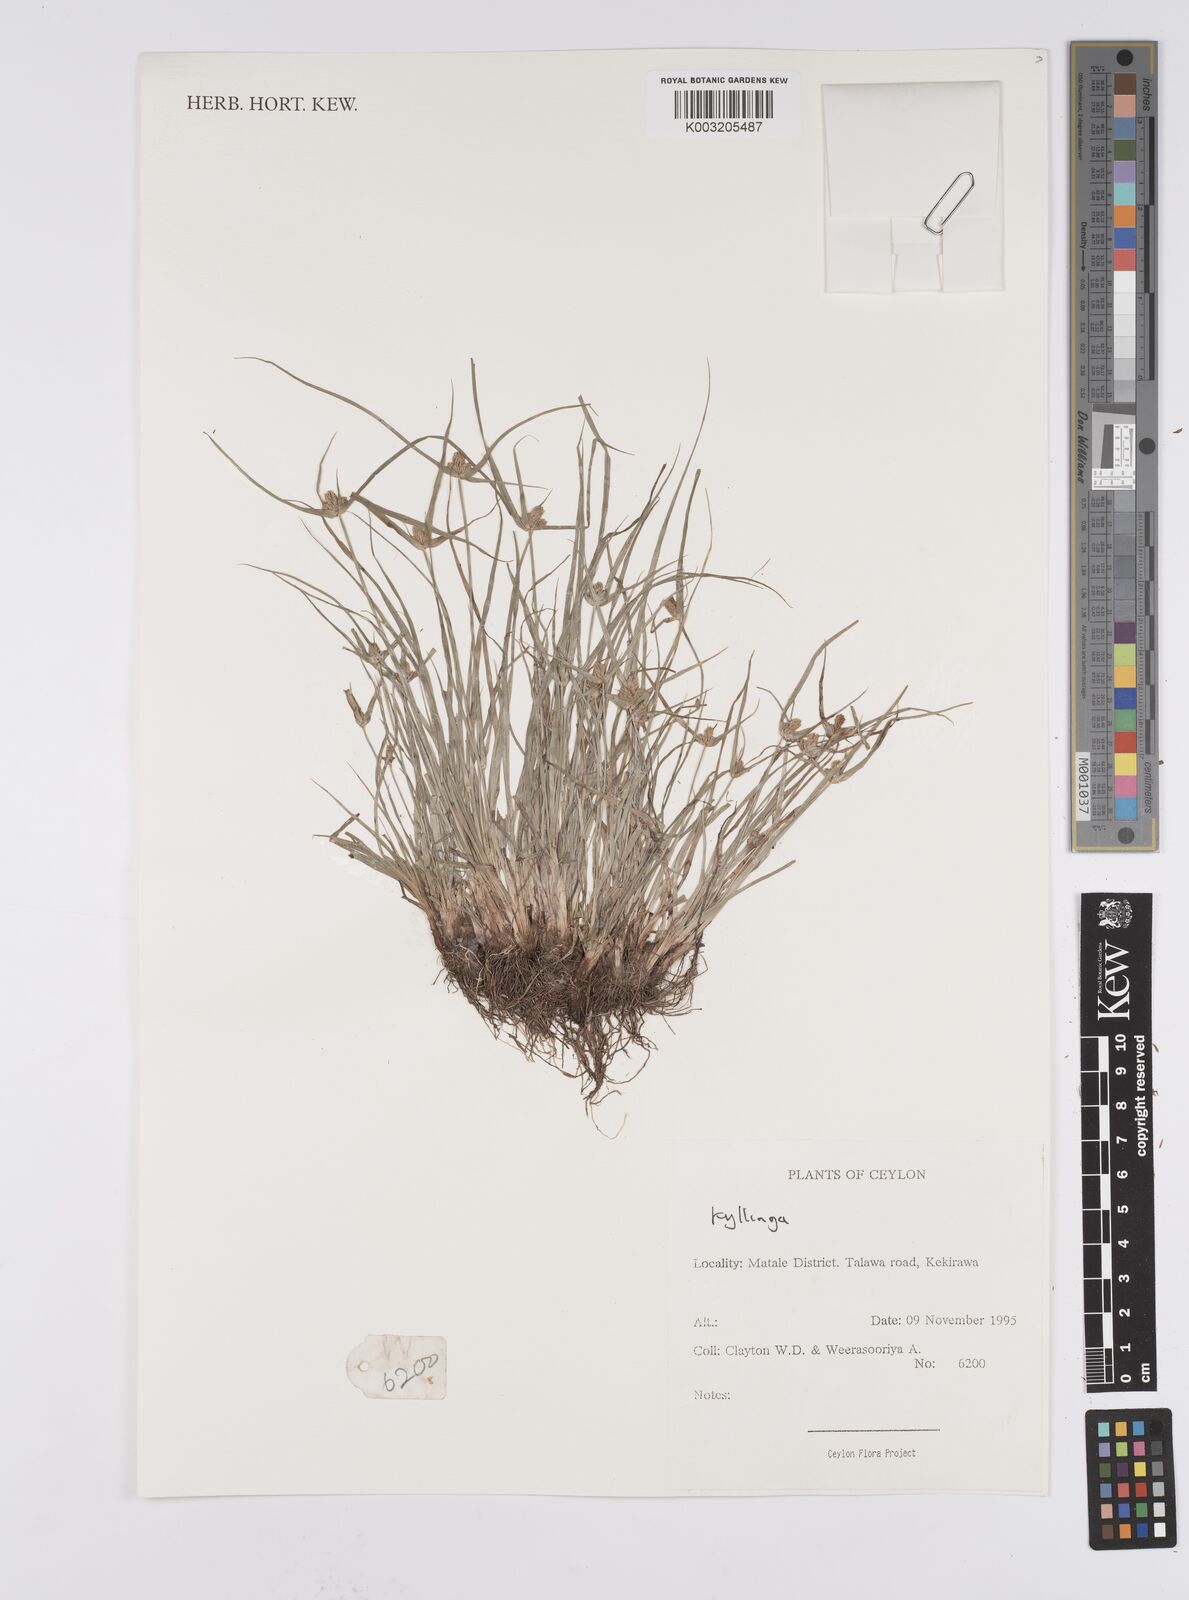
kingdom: Plantae
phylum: Tracheophyta
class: Liliopsida
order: Poales
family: Cyperaceae
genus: Cyperus
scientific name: Cyperus
